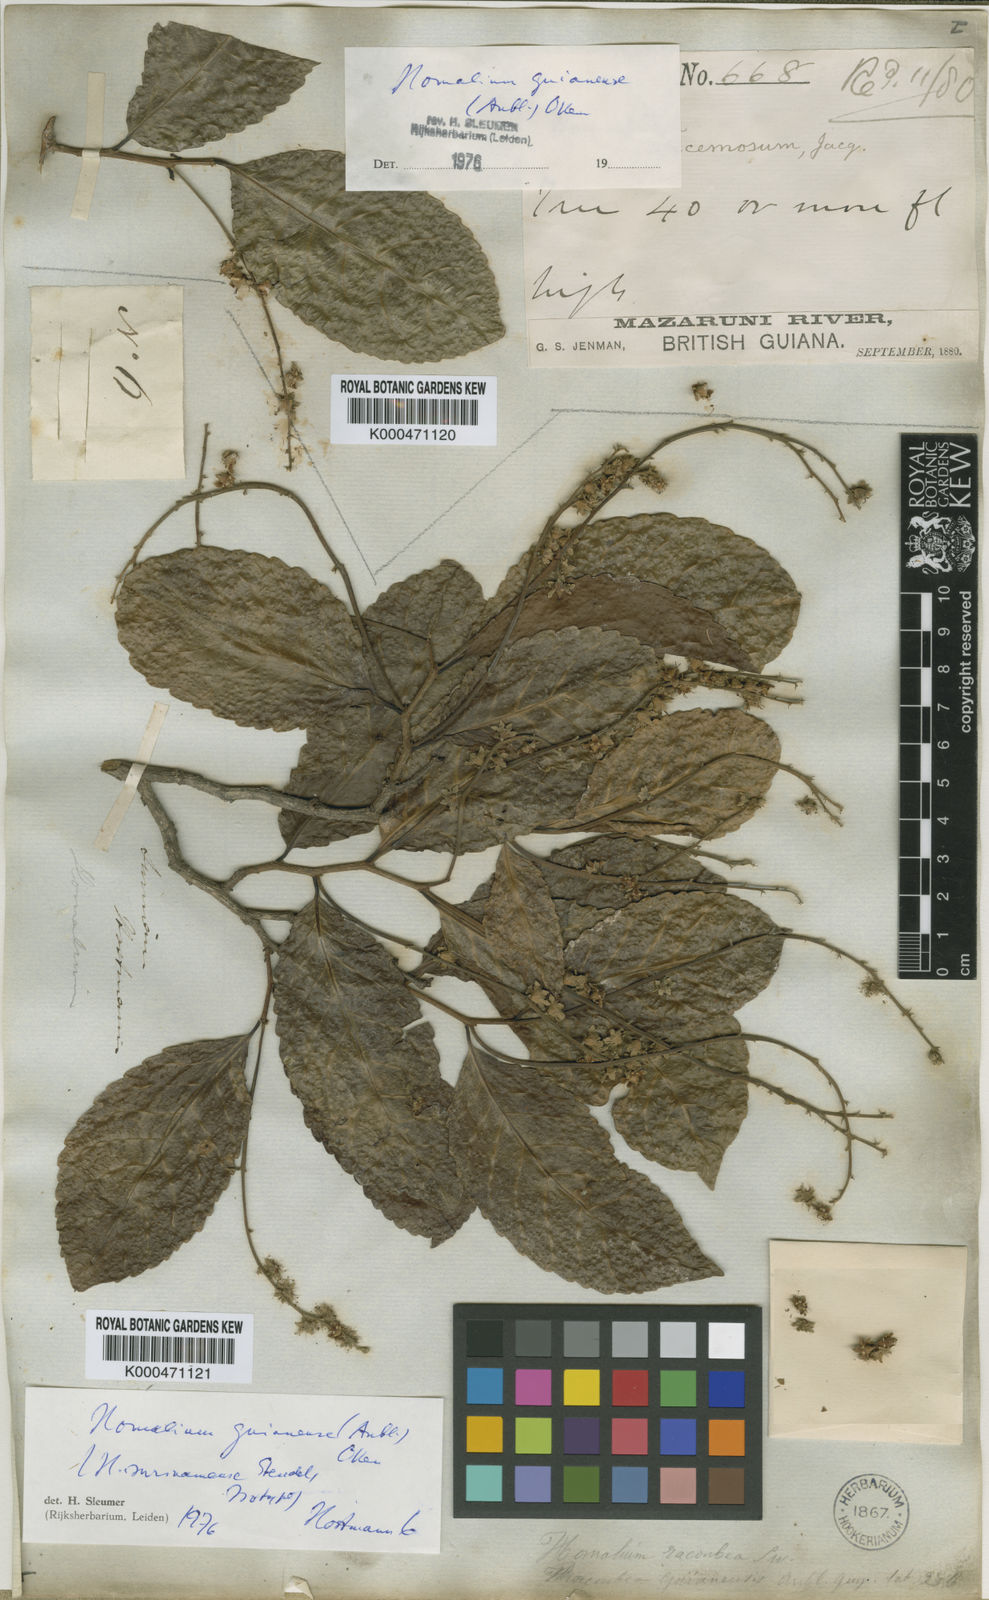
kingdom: Plantae
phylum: Tracheophyta
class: Magnoliopsida
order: Malpighiales
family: Salicaceae
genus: Homalium
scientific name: Homalium guianense
